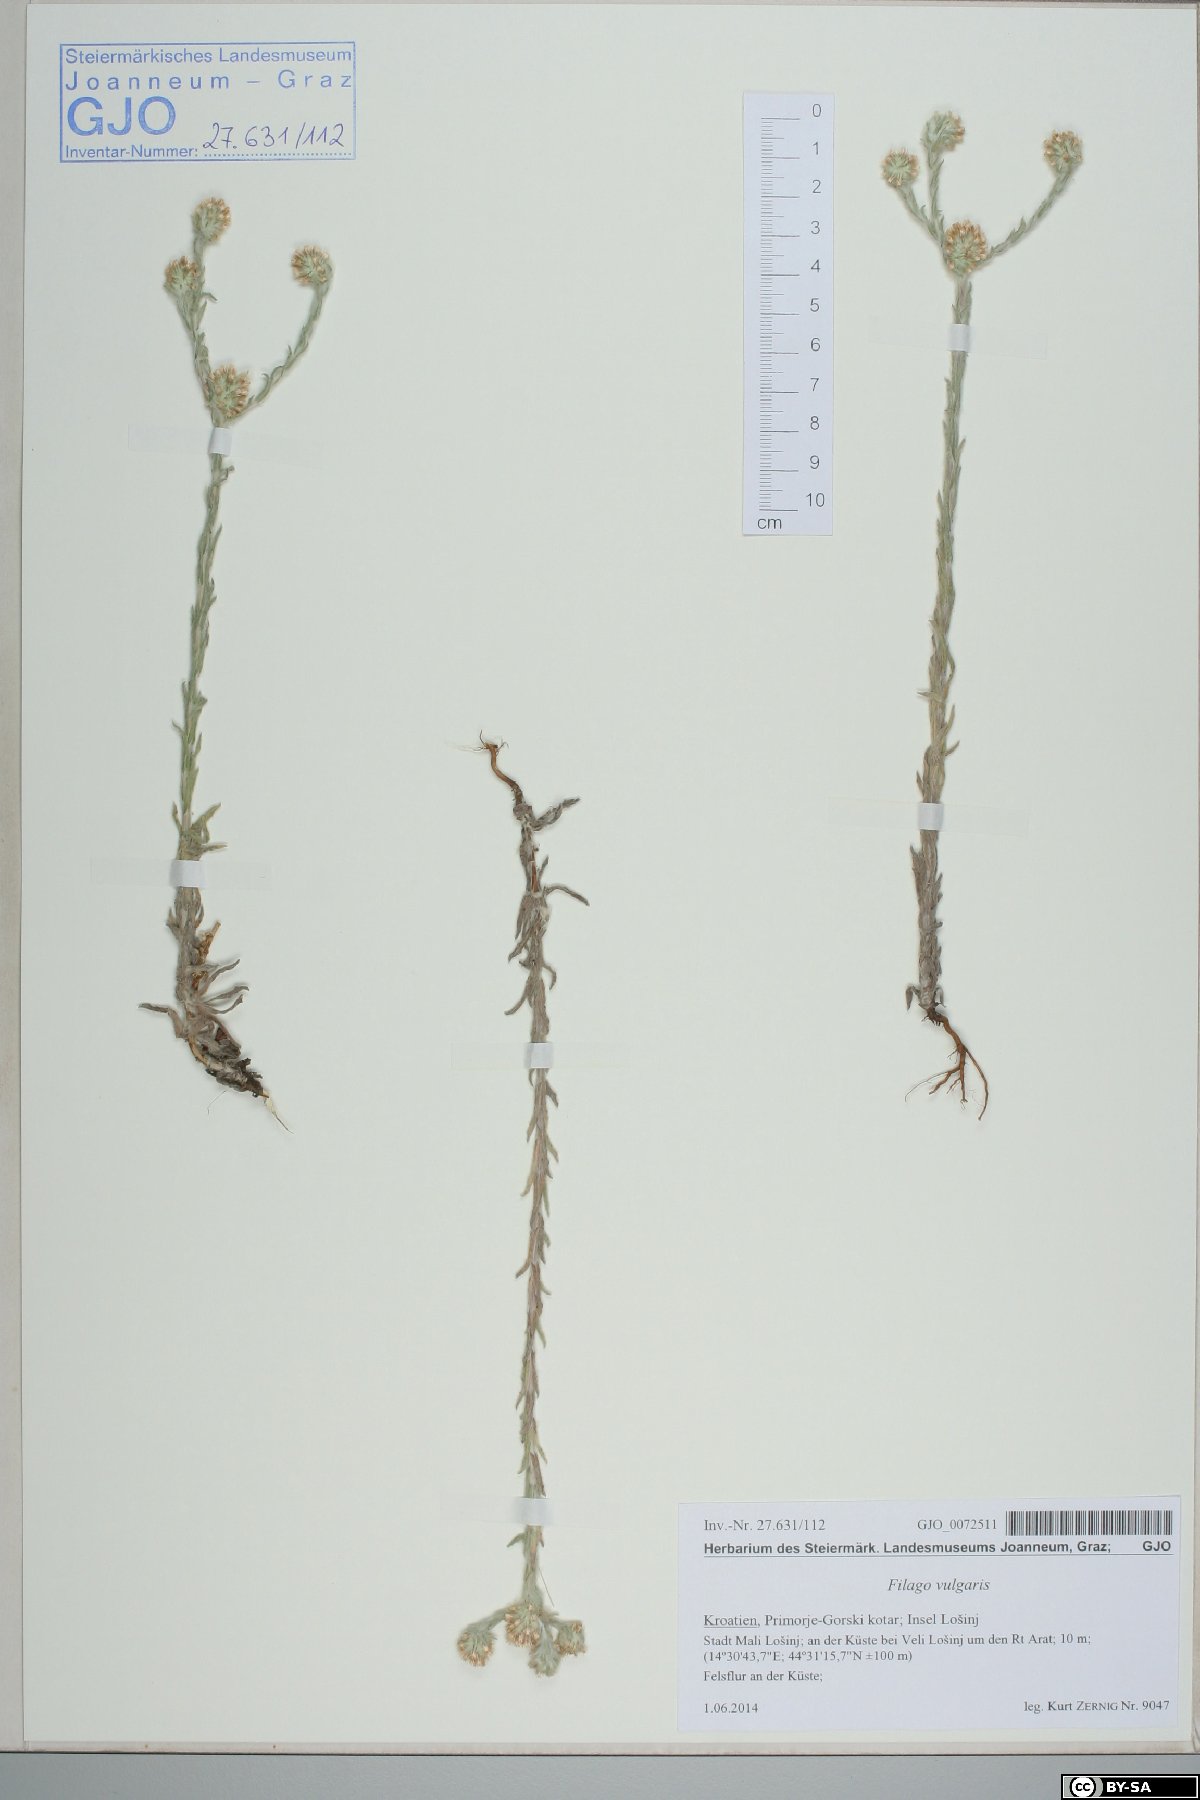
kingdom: Plantae
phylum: Tracheophyta
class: Magnoliopsida
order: Asterales
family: Asteraceae
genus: Filago
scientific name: Filago germanica
